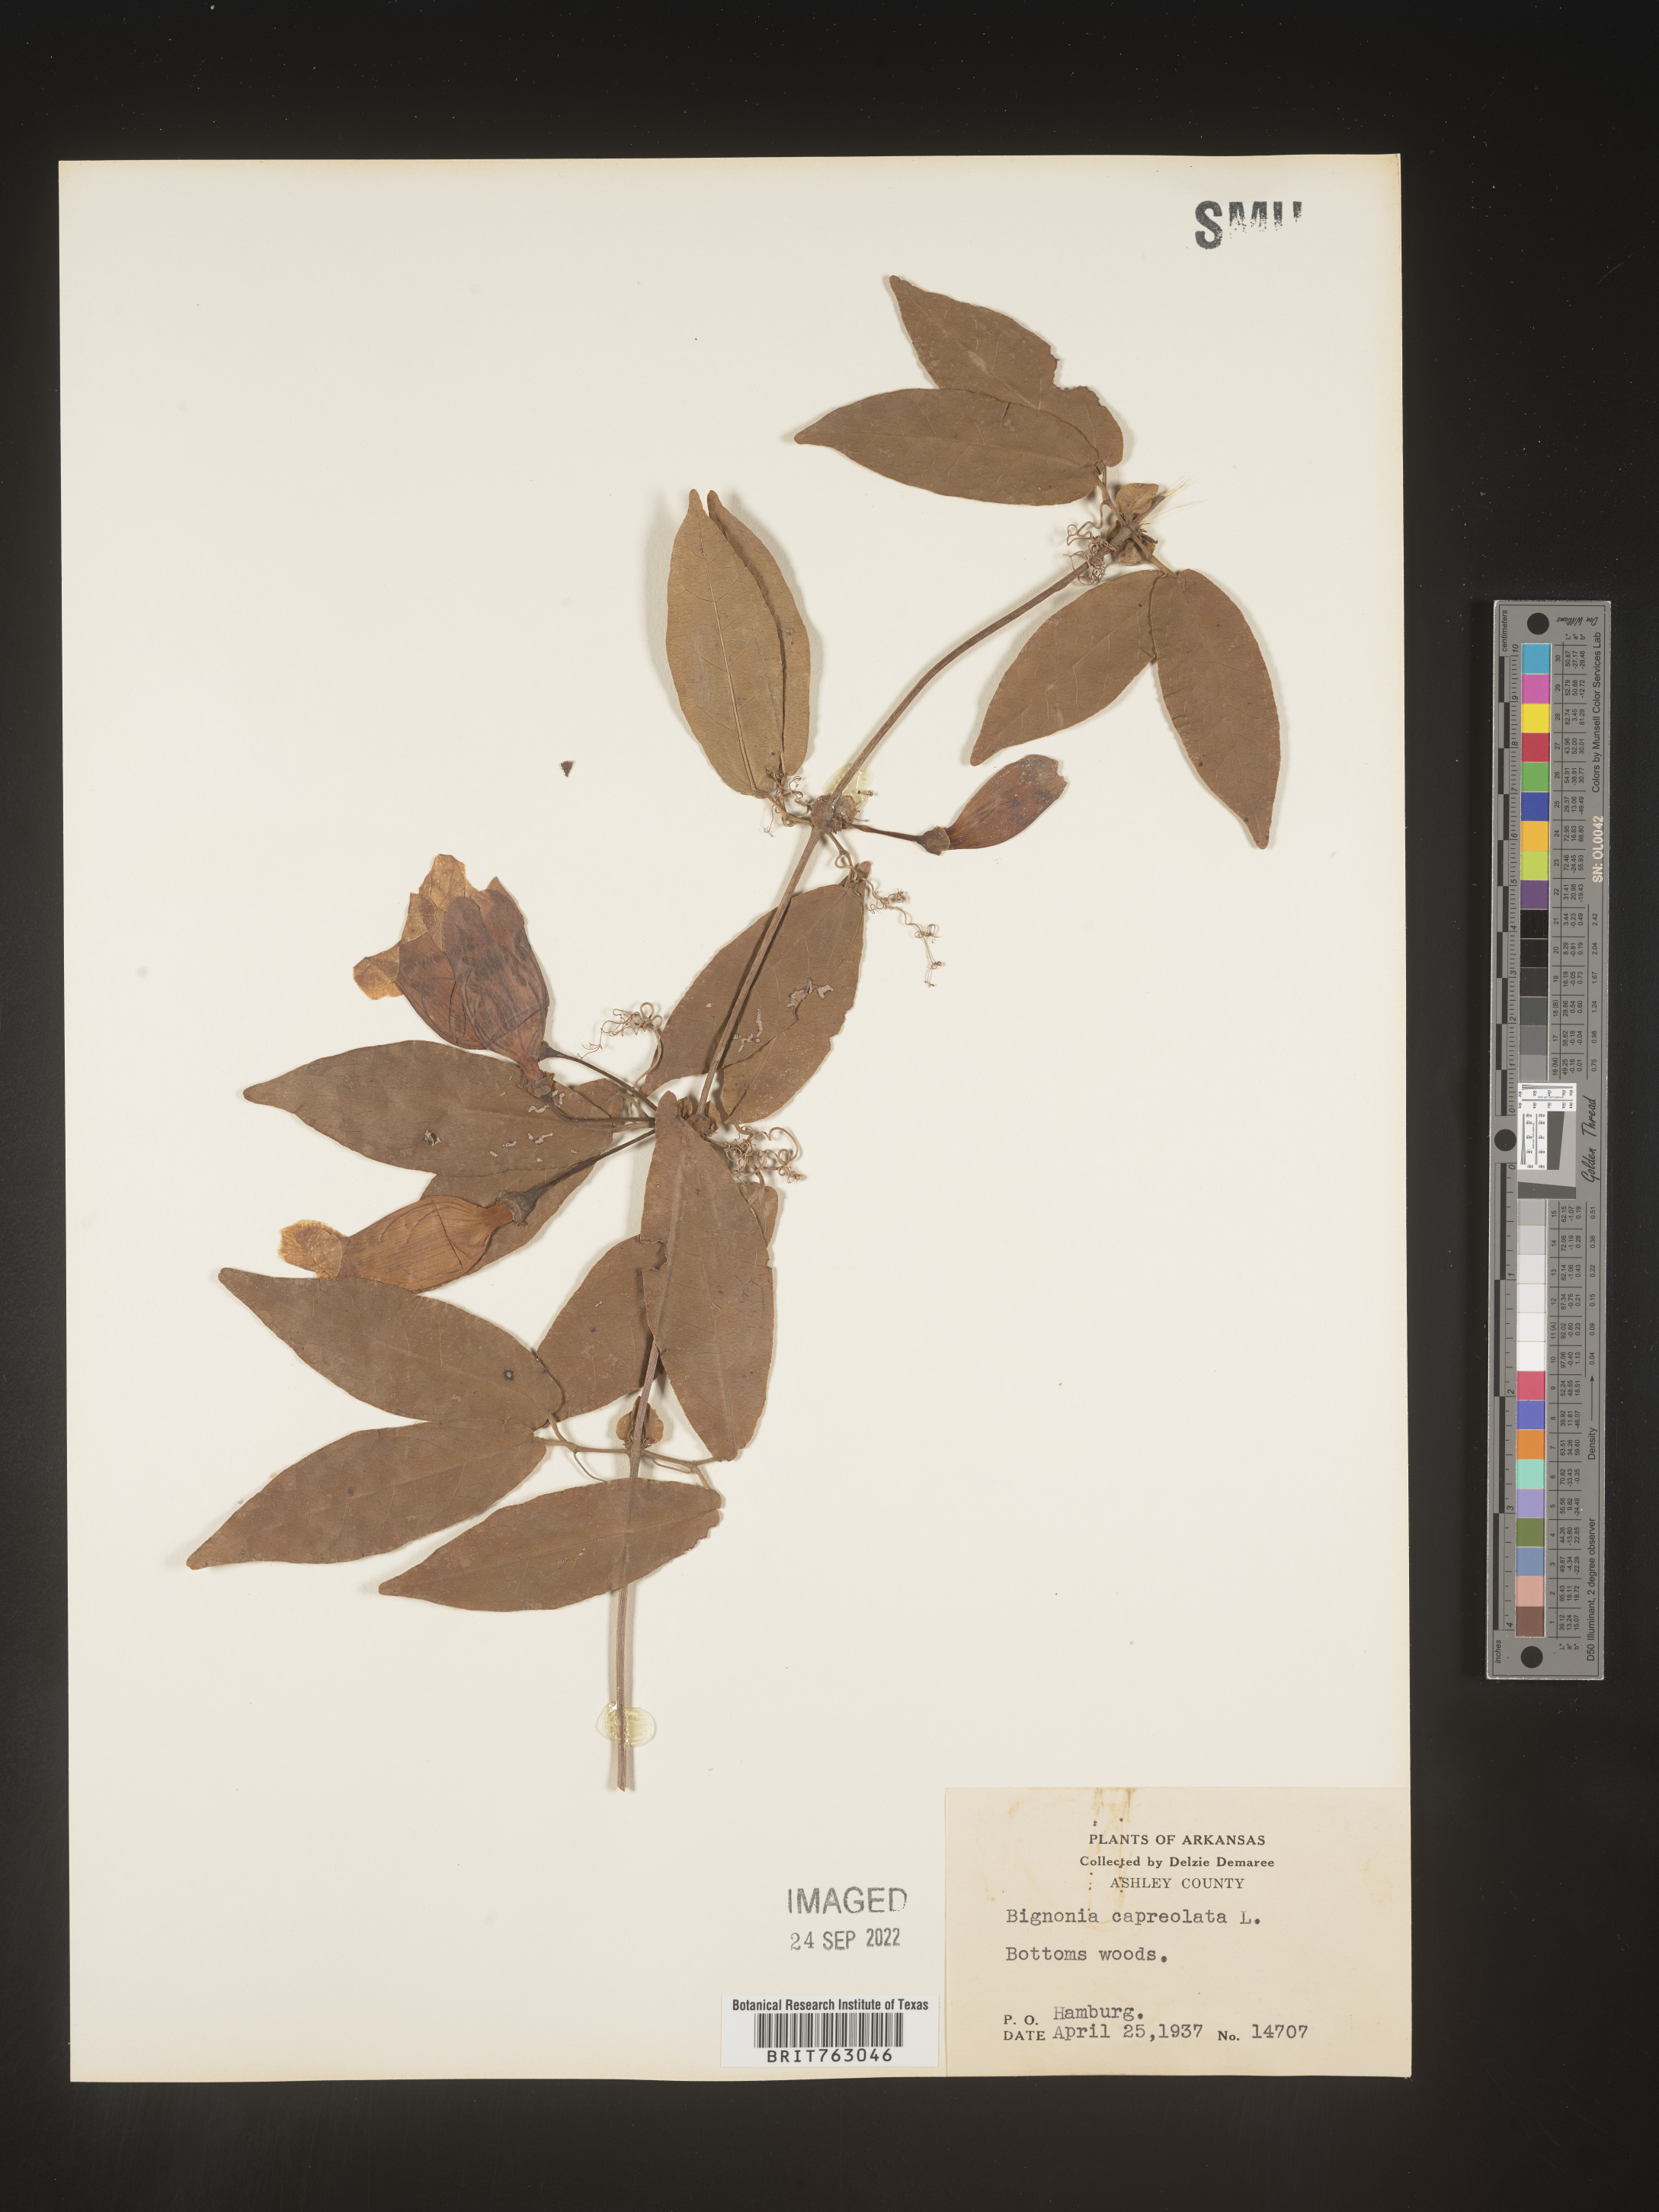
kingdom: Plantae
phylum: Tracheophyta
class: Magnoliopsida
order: Lamiales
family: Bignoniaceae
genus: Bignonia
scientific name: Bignonia capreolata
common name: Crossvine
